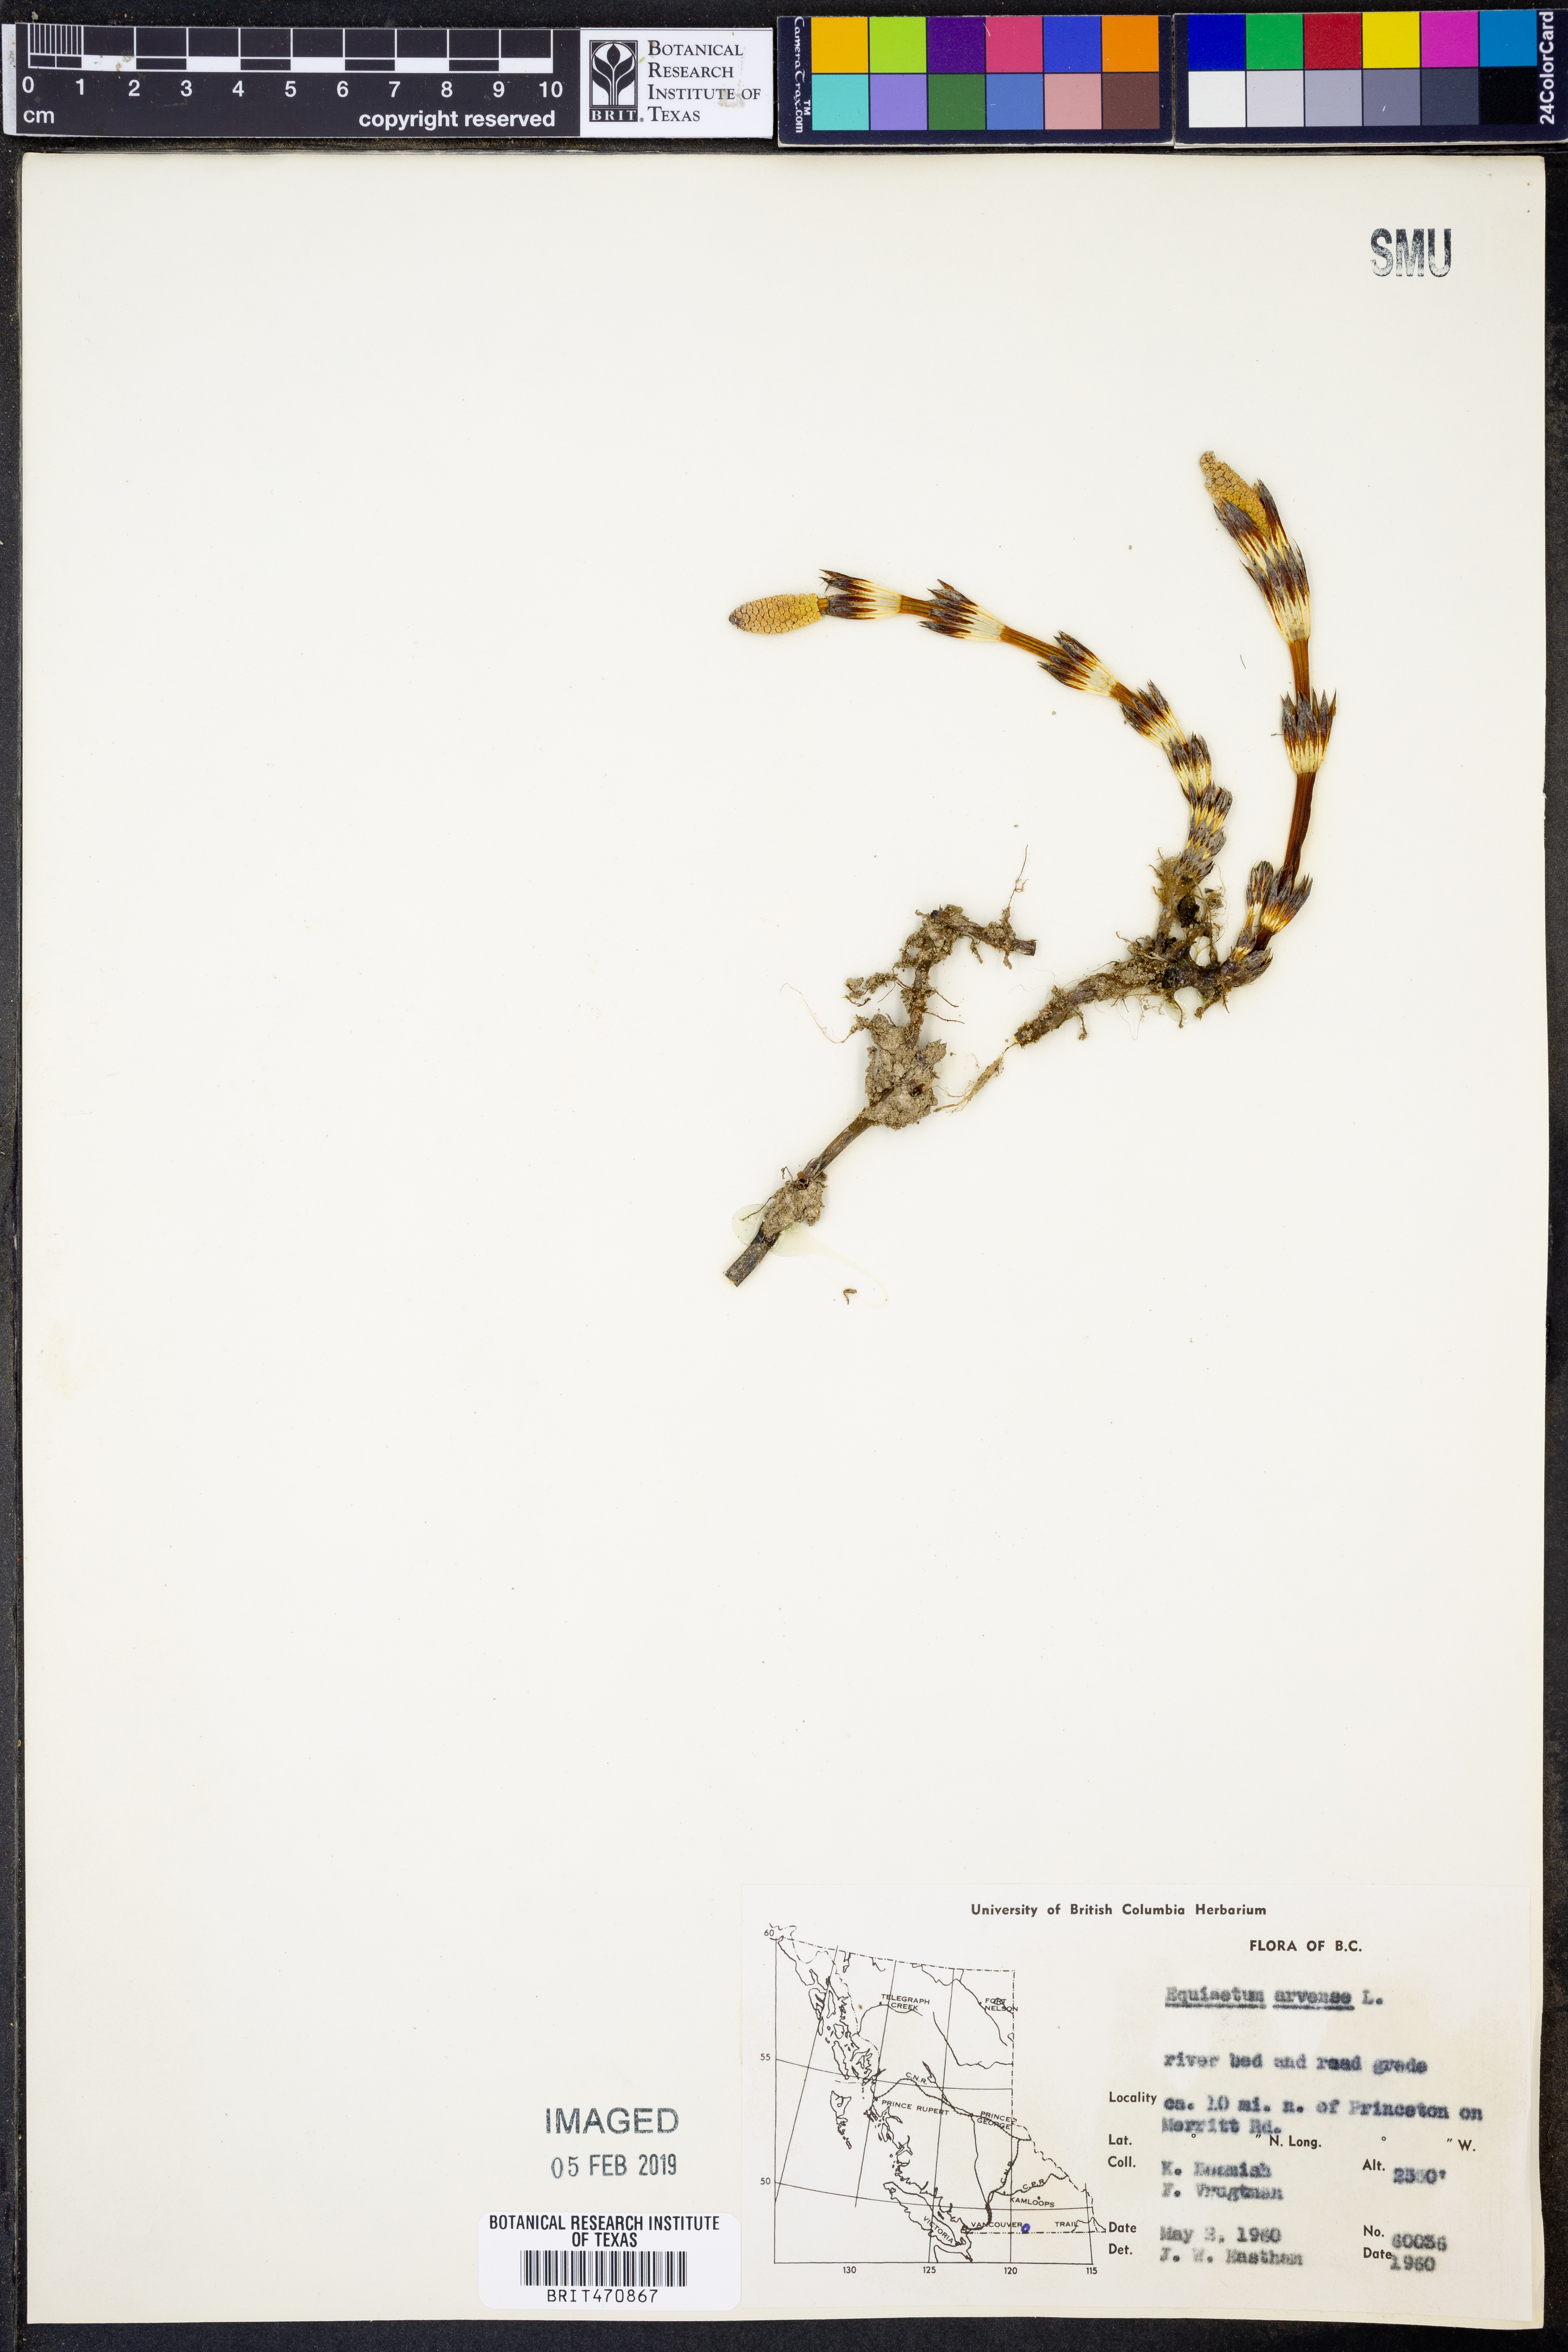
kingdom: Plantae
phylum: Tracheophyta
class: Polypodiopsida
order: Equisetales
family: Equisetaceae
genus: Equisetum
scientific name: Equisetum arvense
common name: Field horsetail
